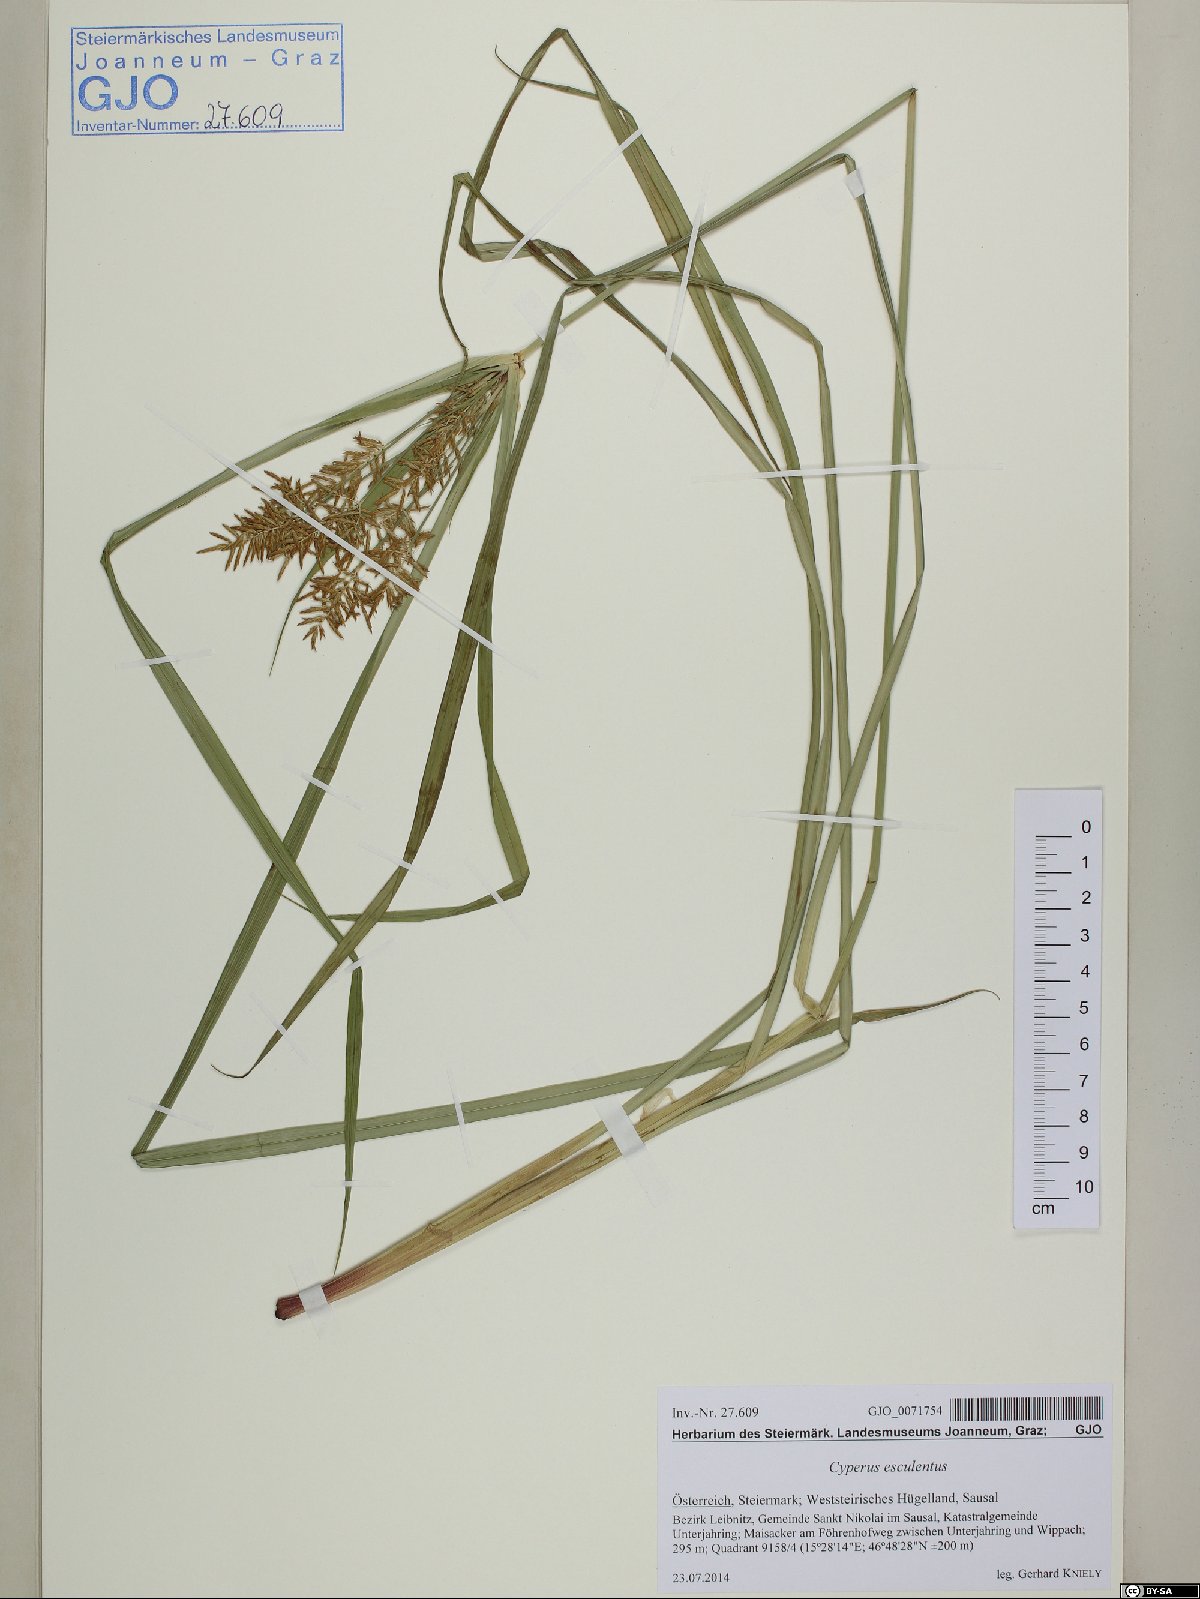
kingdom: Plantae
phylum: Tracheophyta
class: Liliopsida
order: Poales
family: Cyperaceae
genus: Cyperus
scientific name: Cyperus esculentus
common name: Yellow nutsedge
